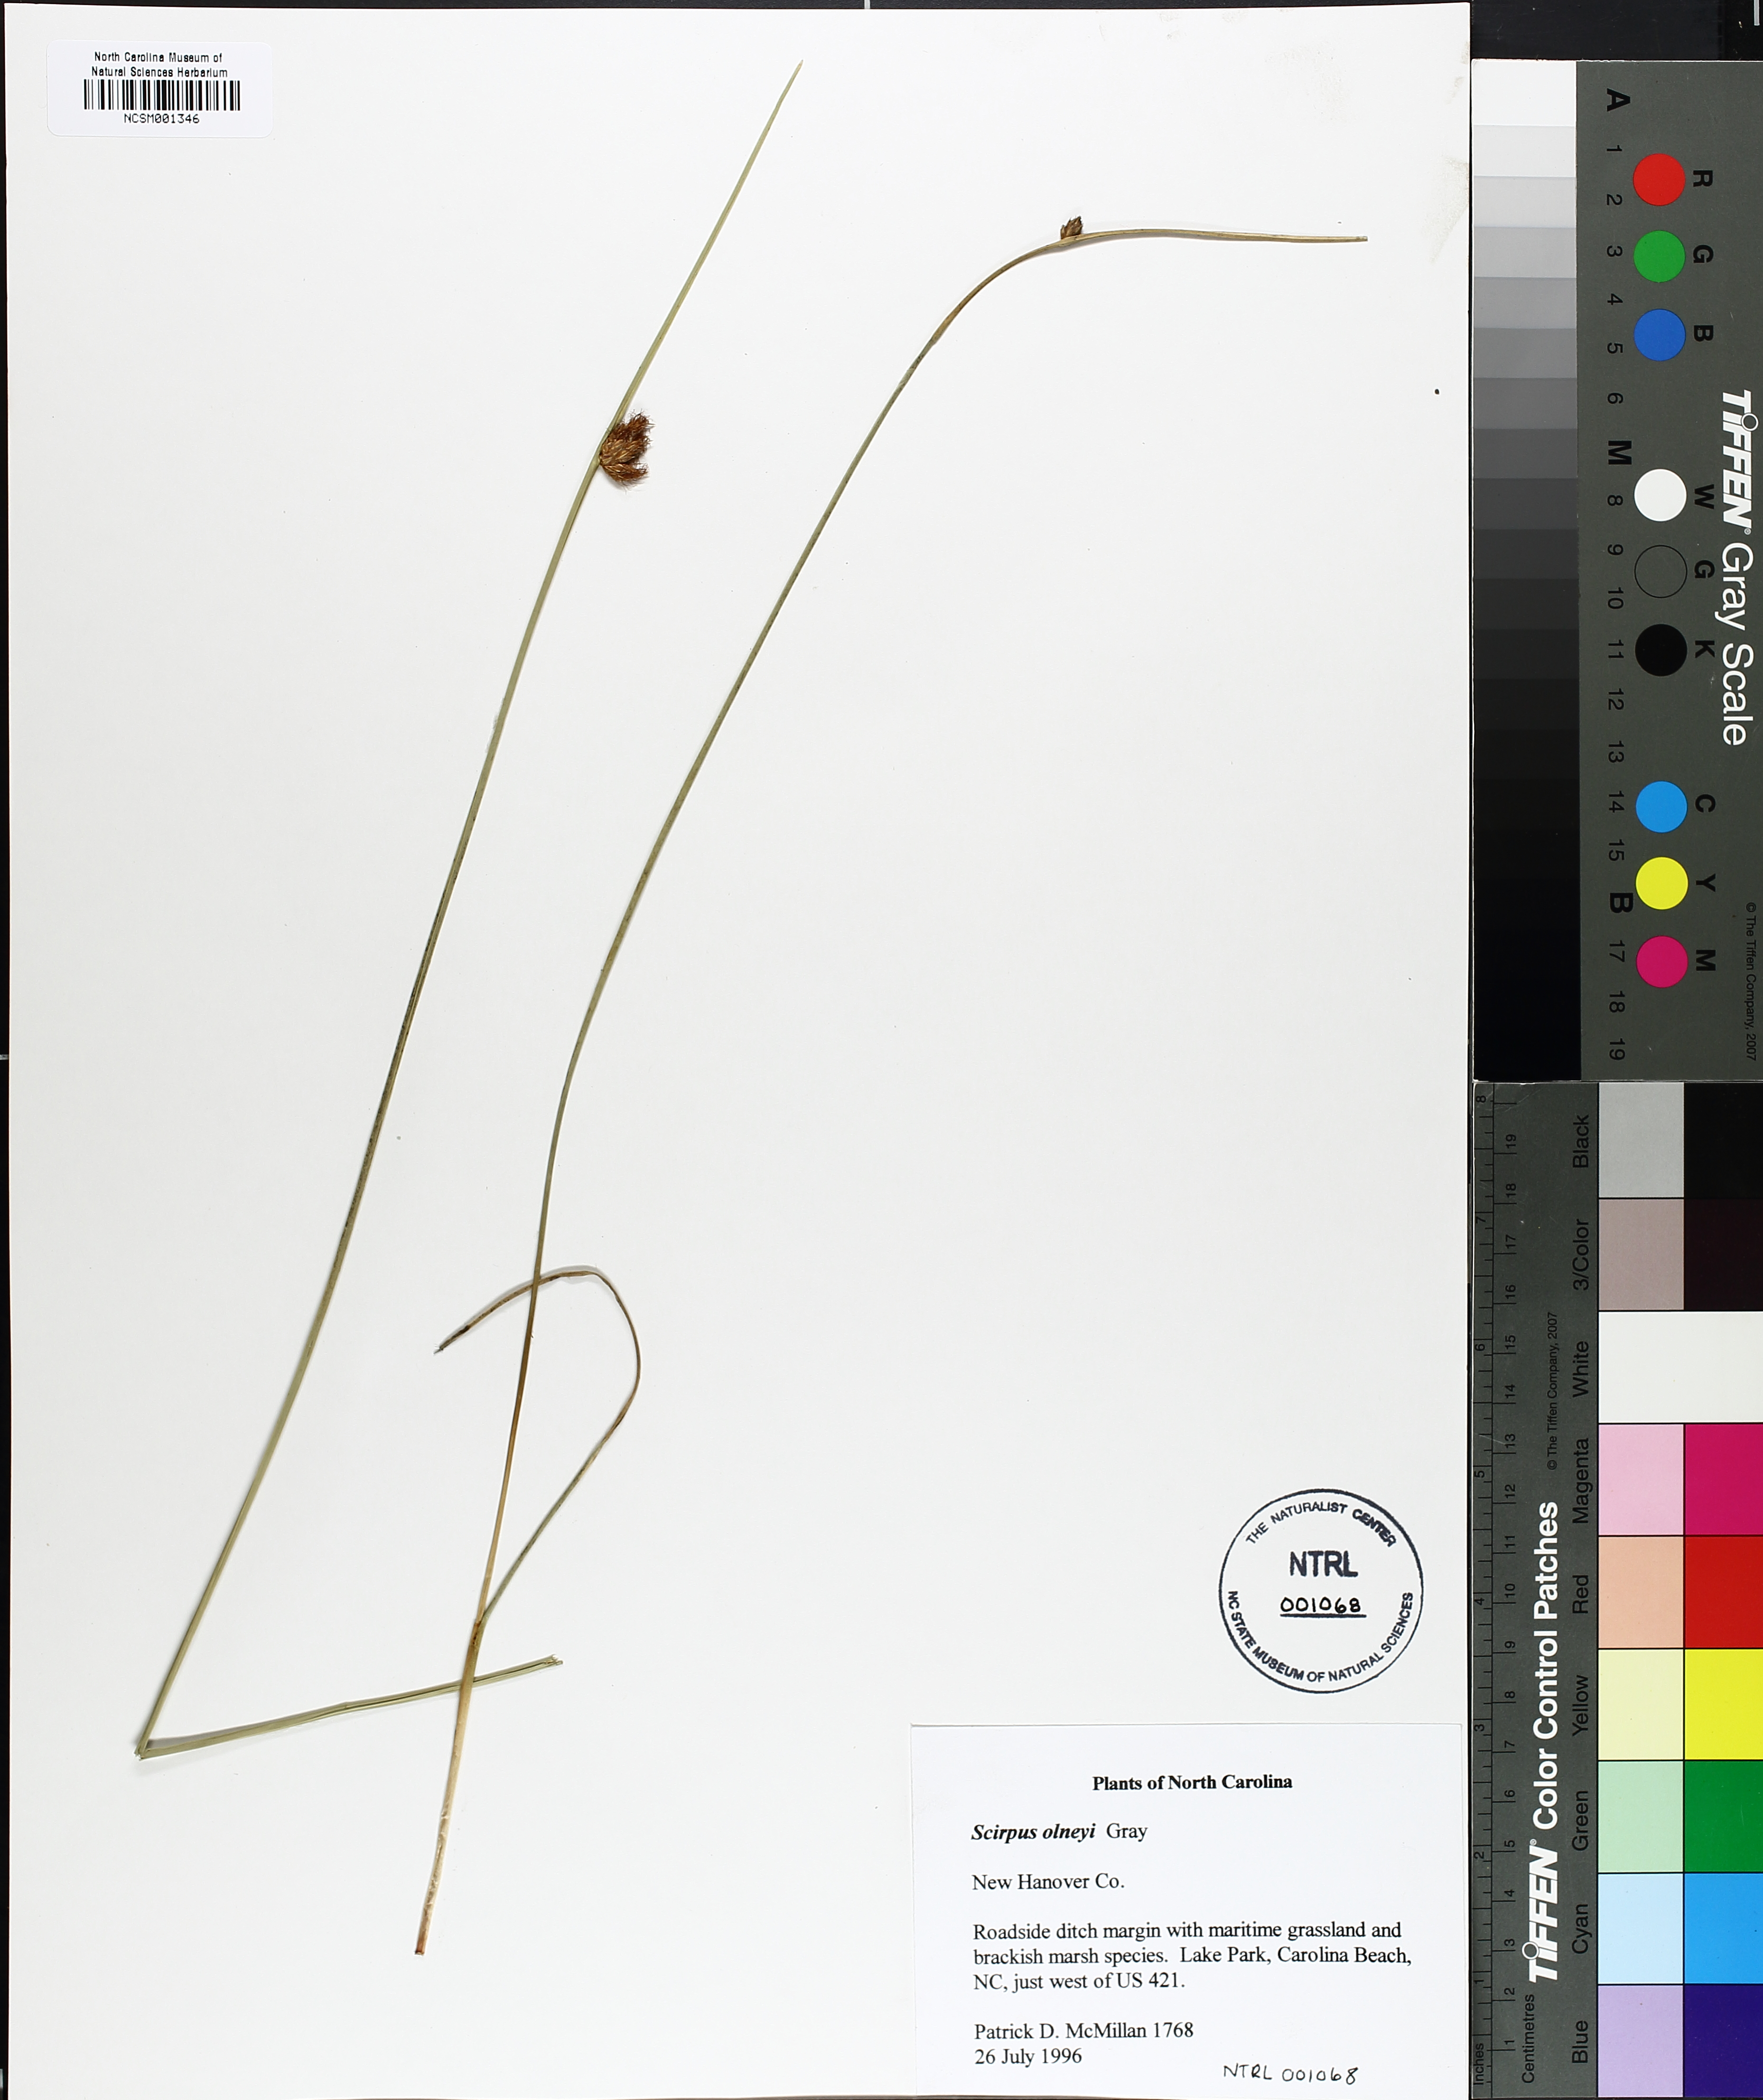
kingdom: Plantae
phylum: Tracheophyta
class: Liliopsida
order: Poales
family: Cyperaceae
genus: Schoenoplectus
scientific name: Schoenoplectus americanus
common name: American three-square bulrush
